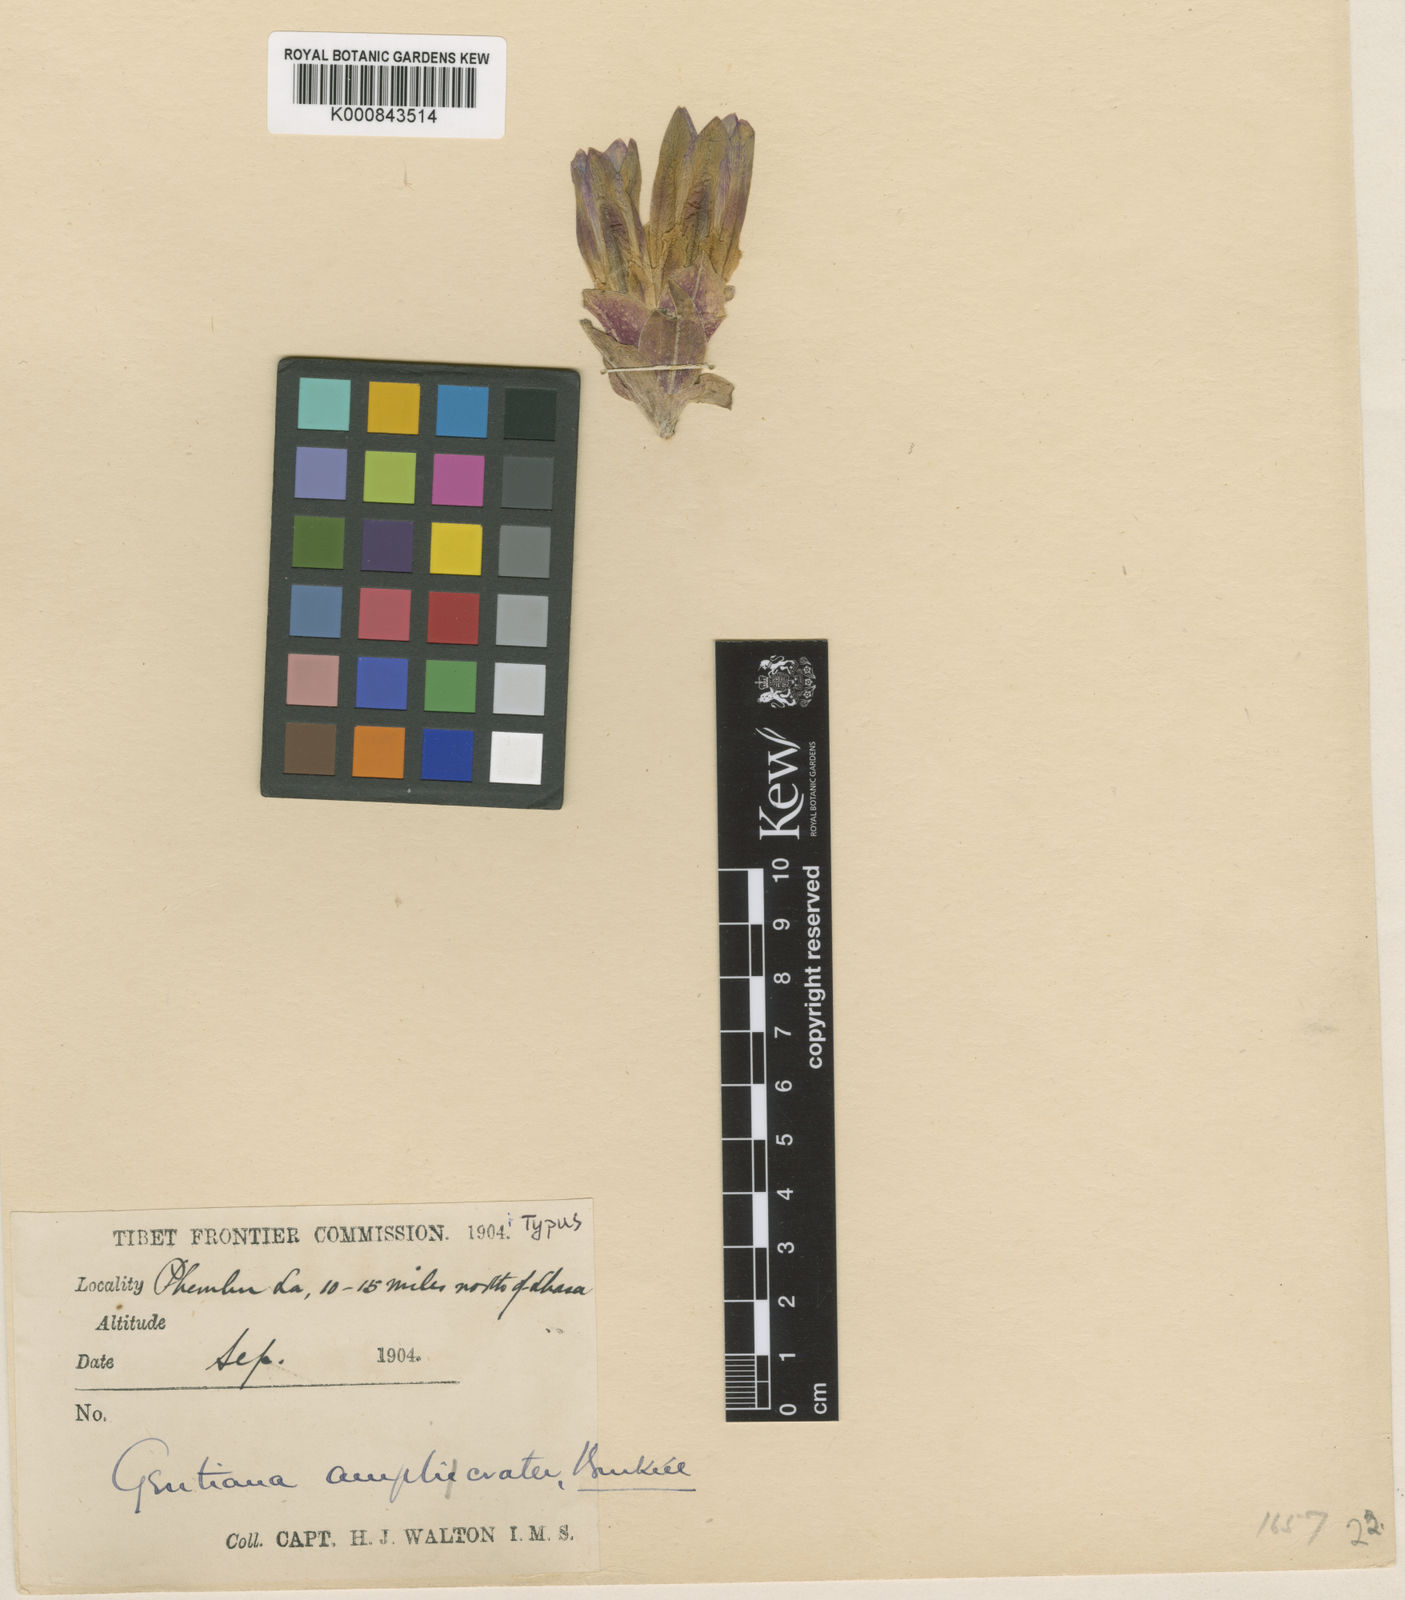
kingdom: Plantae
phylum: Tracheophyta
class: Magnoliopsida
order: Gentianales
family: Gentianaceae
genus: Gentiana
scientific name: Gentiana amplicrater
